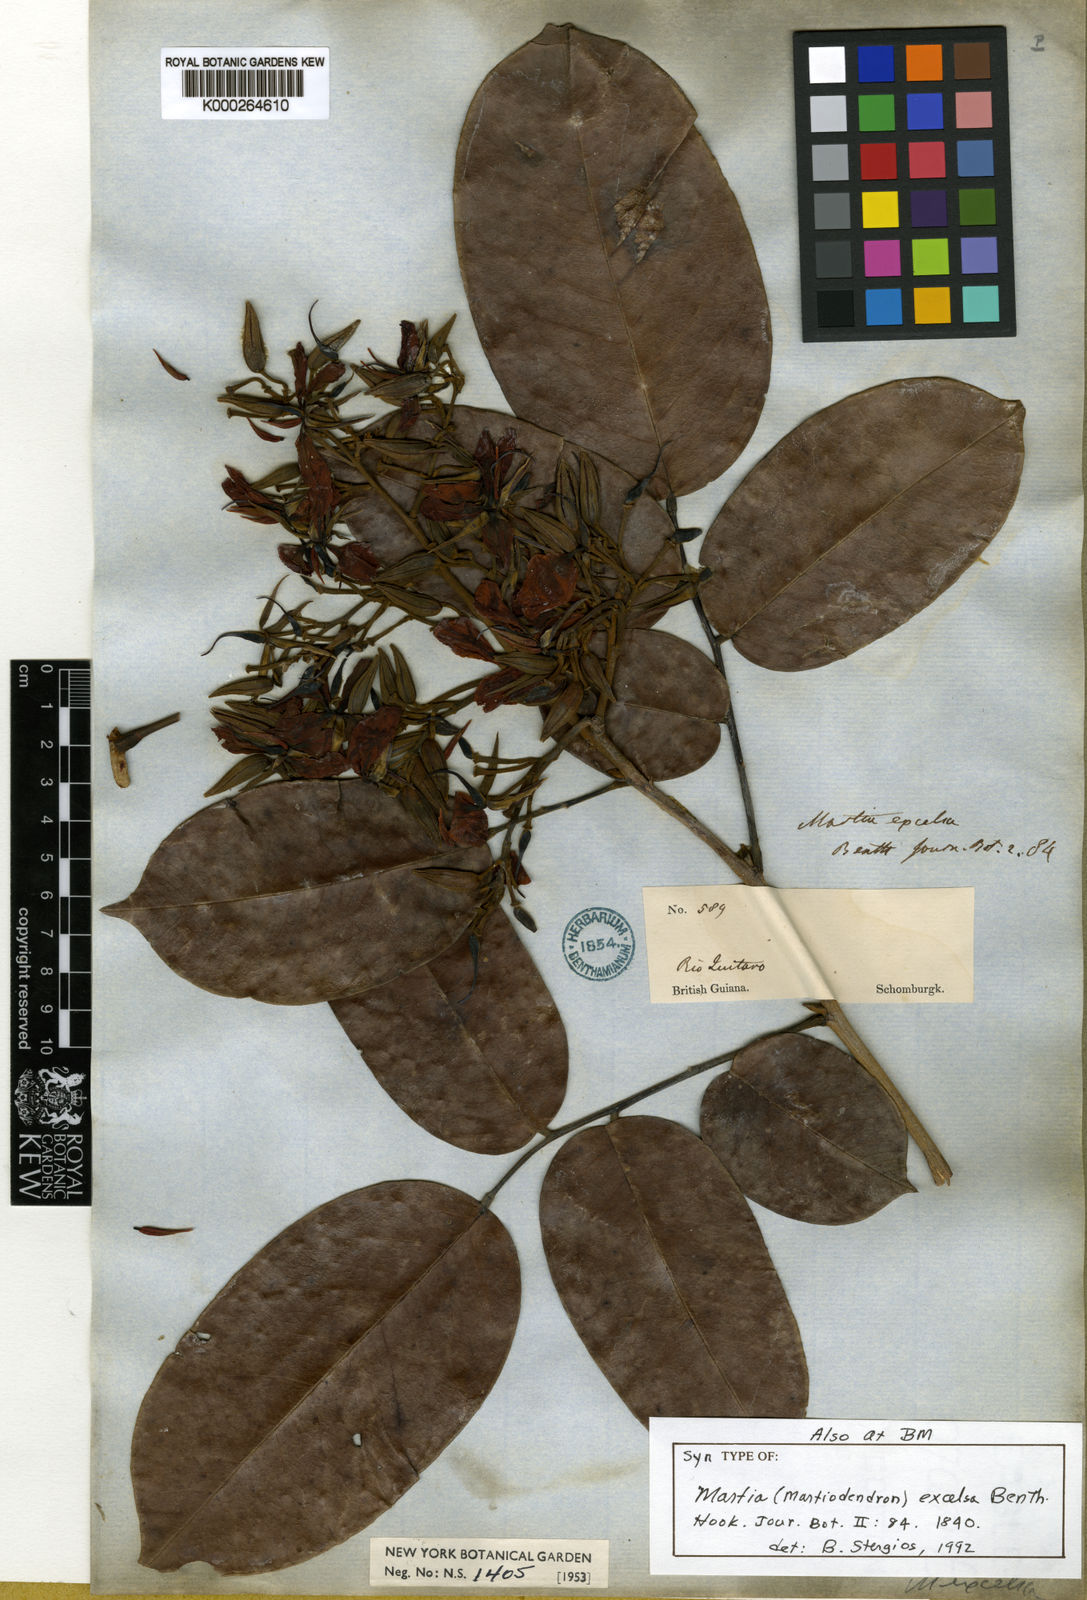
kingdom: Plantae
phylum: Tracheophyta
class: Magnoliopsida
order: Fabales
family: Fabaceae
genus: Martiodendron
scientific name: Martiodendron excelsum
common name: Tatabuballi
